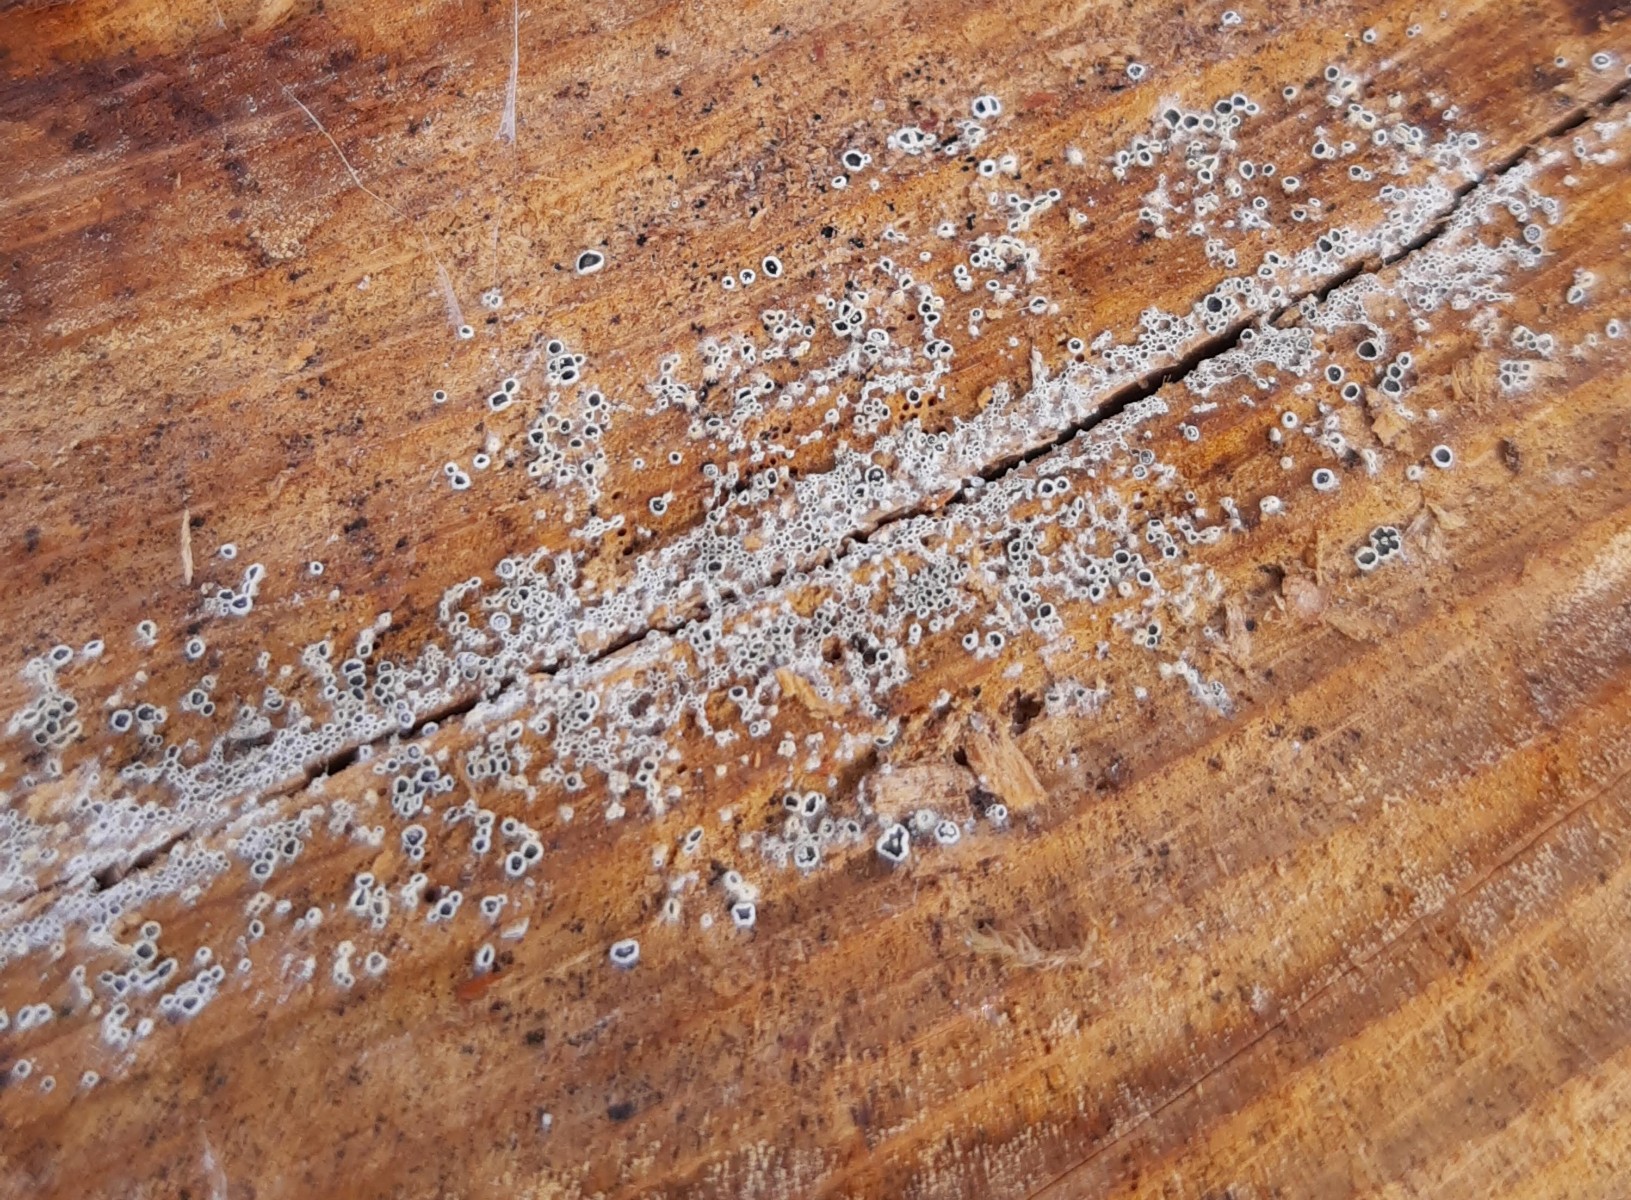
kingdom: Fungi
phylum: Ascomycota
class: Leotiomycetes
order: Helotiales
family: Arachnopezizaceae
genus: Eriopezia
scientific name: Eriopezia caesia
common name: ege-spindskive
